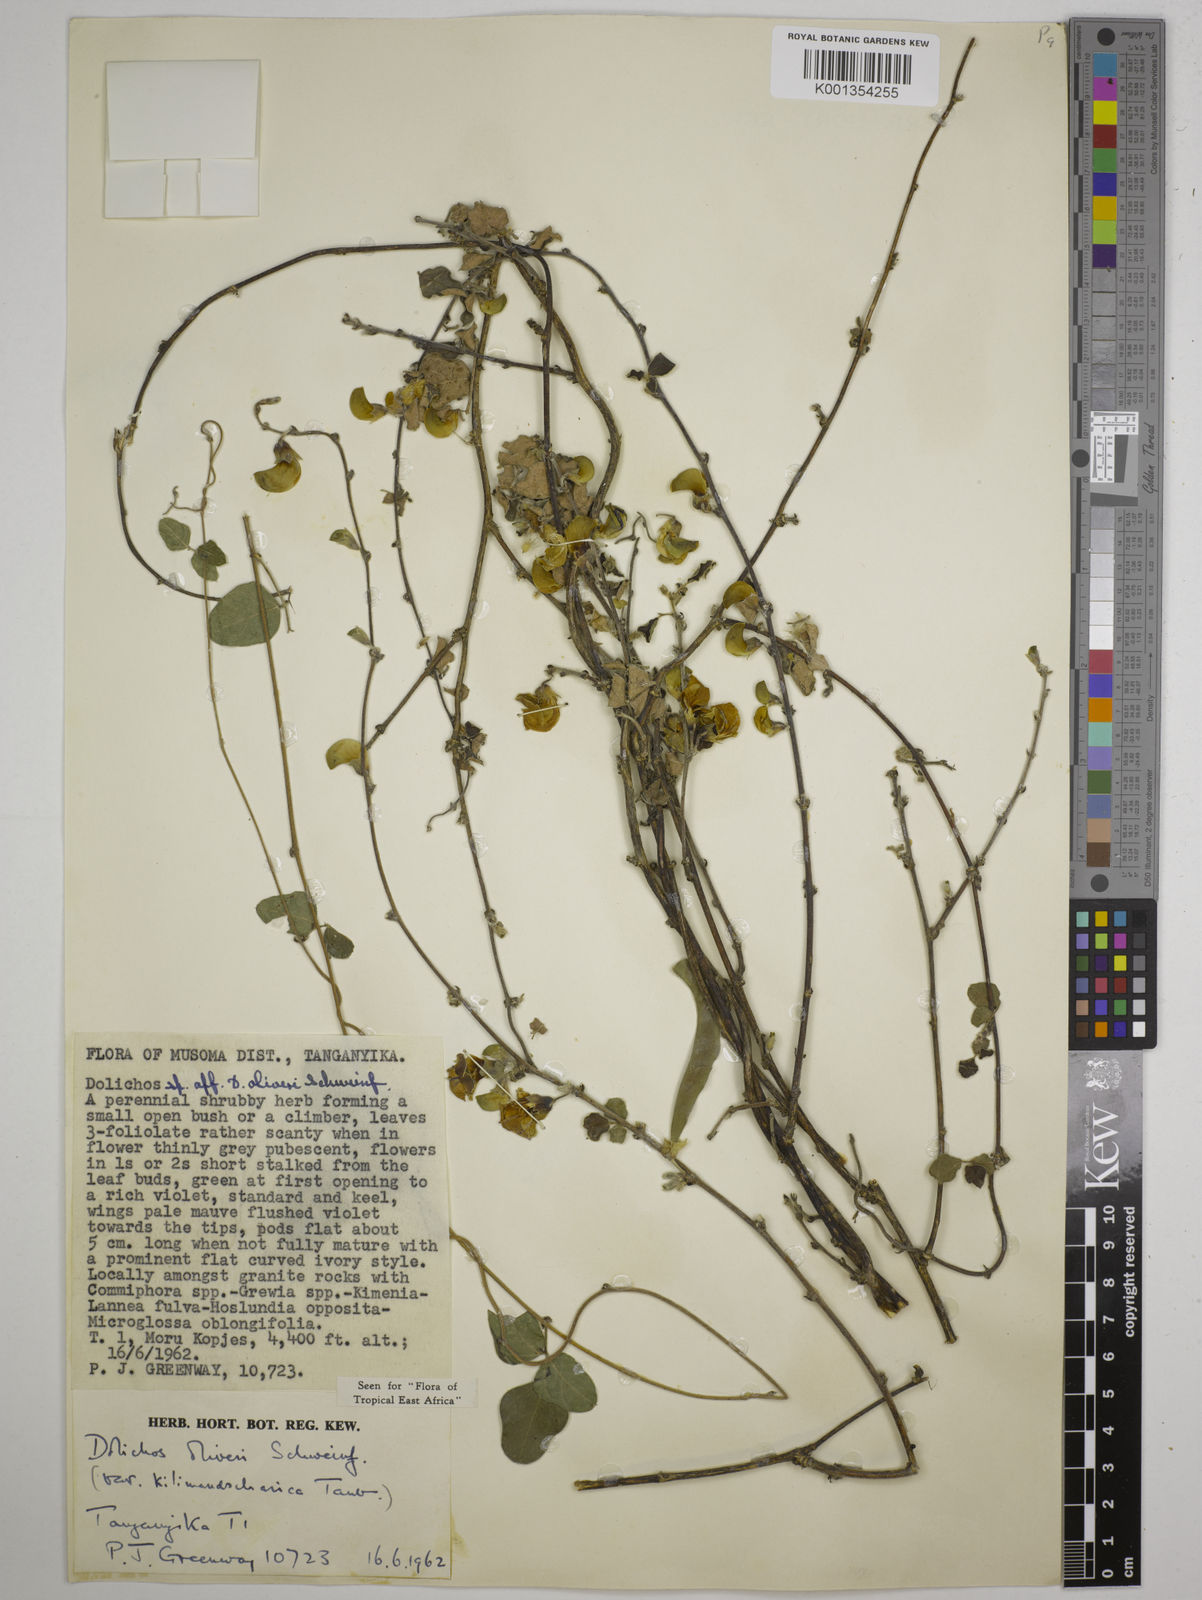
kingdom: Plantae
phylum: Tracheophyta
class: Magnoliopsida
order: Fabales
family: Fabaceae
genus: Dolichos
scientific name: Dolichos
